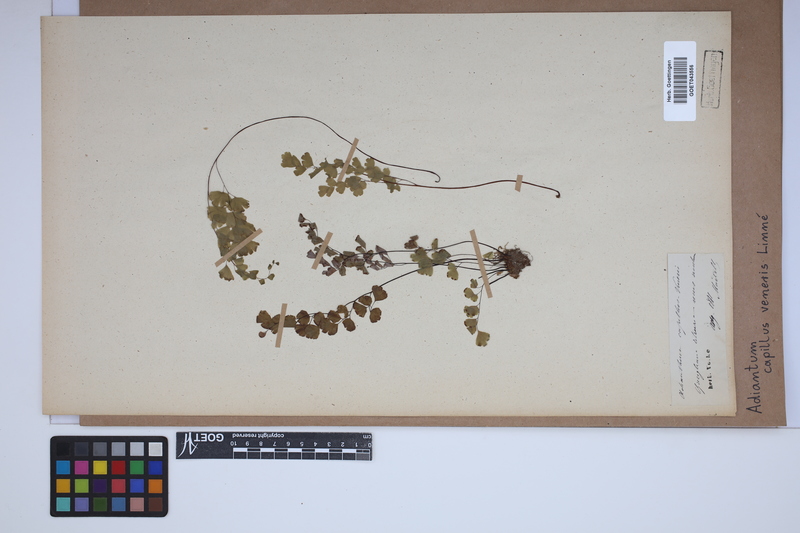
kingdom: Plantae
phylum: Tracheophyta
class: Polypodiopsida
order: Polypodiales
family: Pteridaceae
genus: Adiantum
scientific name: Adiantum capillus-veneris
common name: Maidenhair fern
